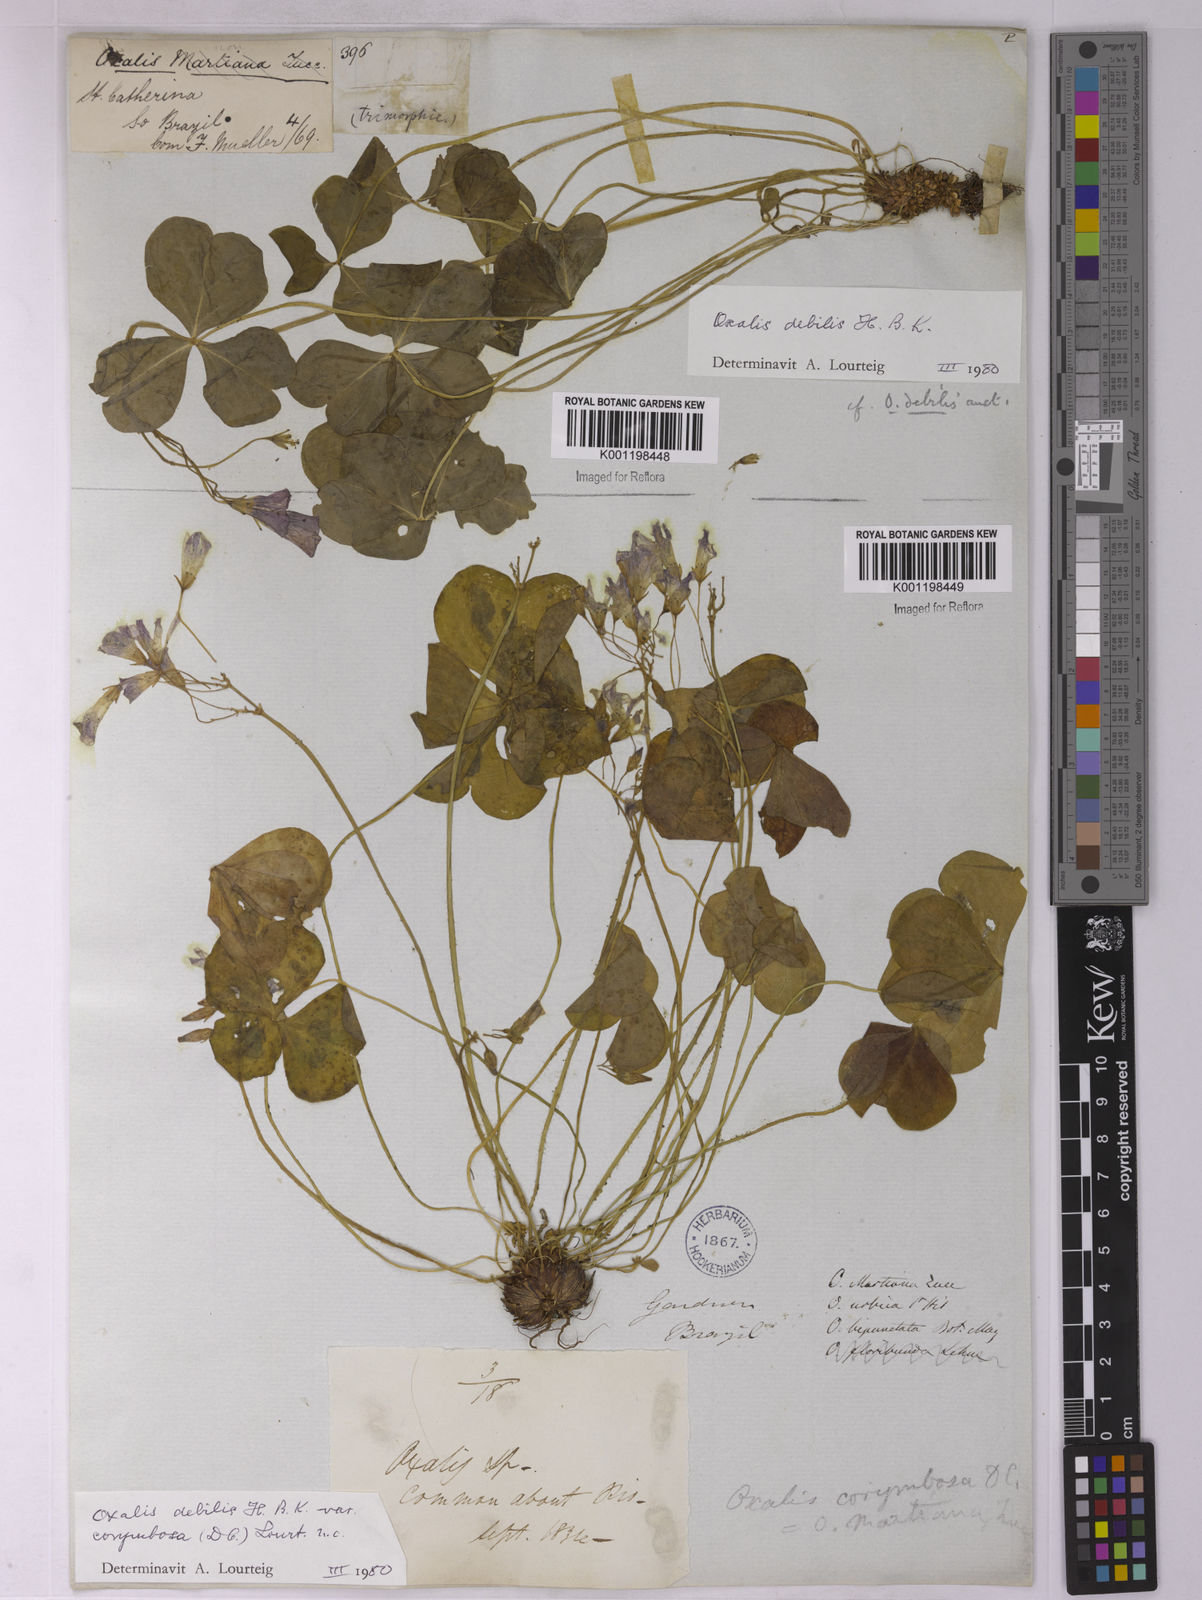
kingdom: Plantae
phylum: Tracheophyta
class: Magnoliopsida
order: Oxalidales
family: Oxalidaceae
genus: Oxalis
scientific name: Oxalis debilis
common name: Large-flowered pink-sorrel
